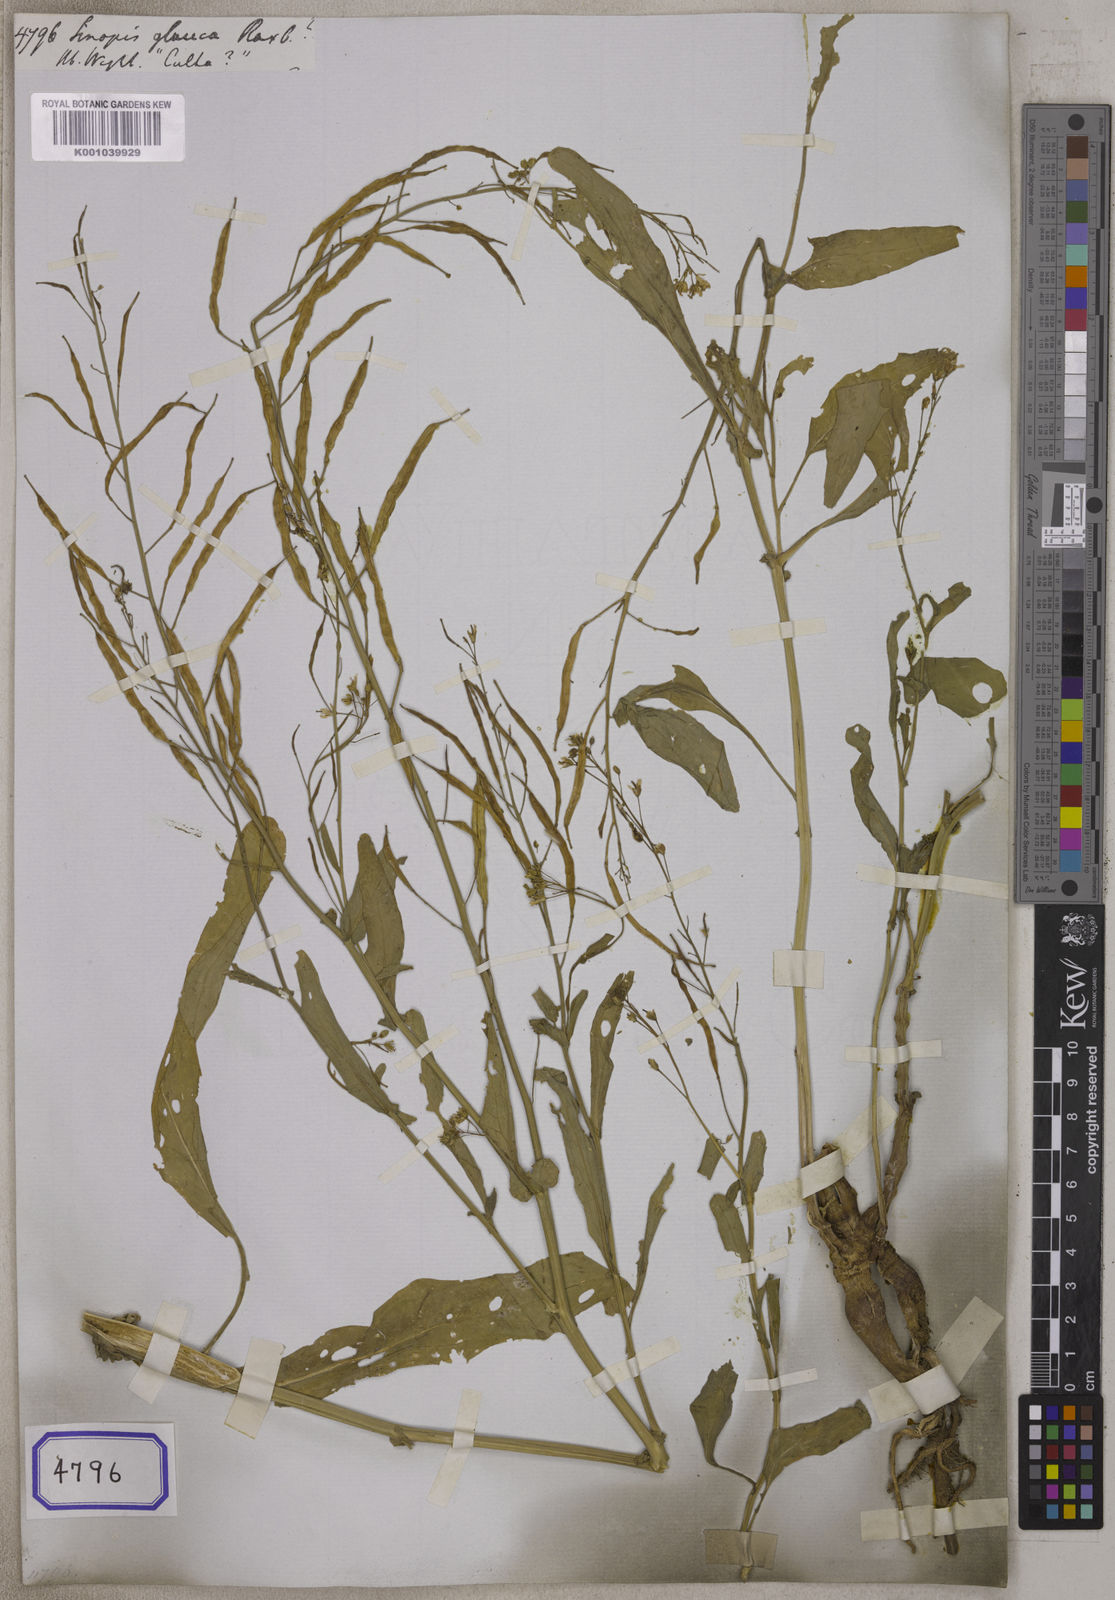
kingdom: Plantae
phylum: Tracheophyta
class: Magnoliopsida
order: Brassicales
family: Brassicaceae
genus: Brassica
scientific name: Brassica napus
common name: Rape
